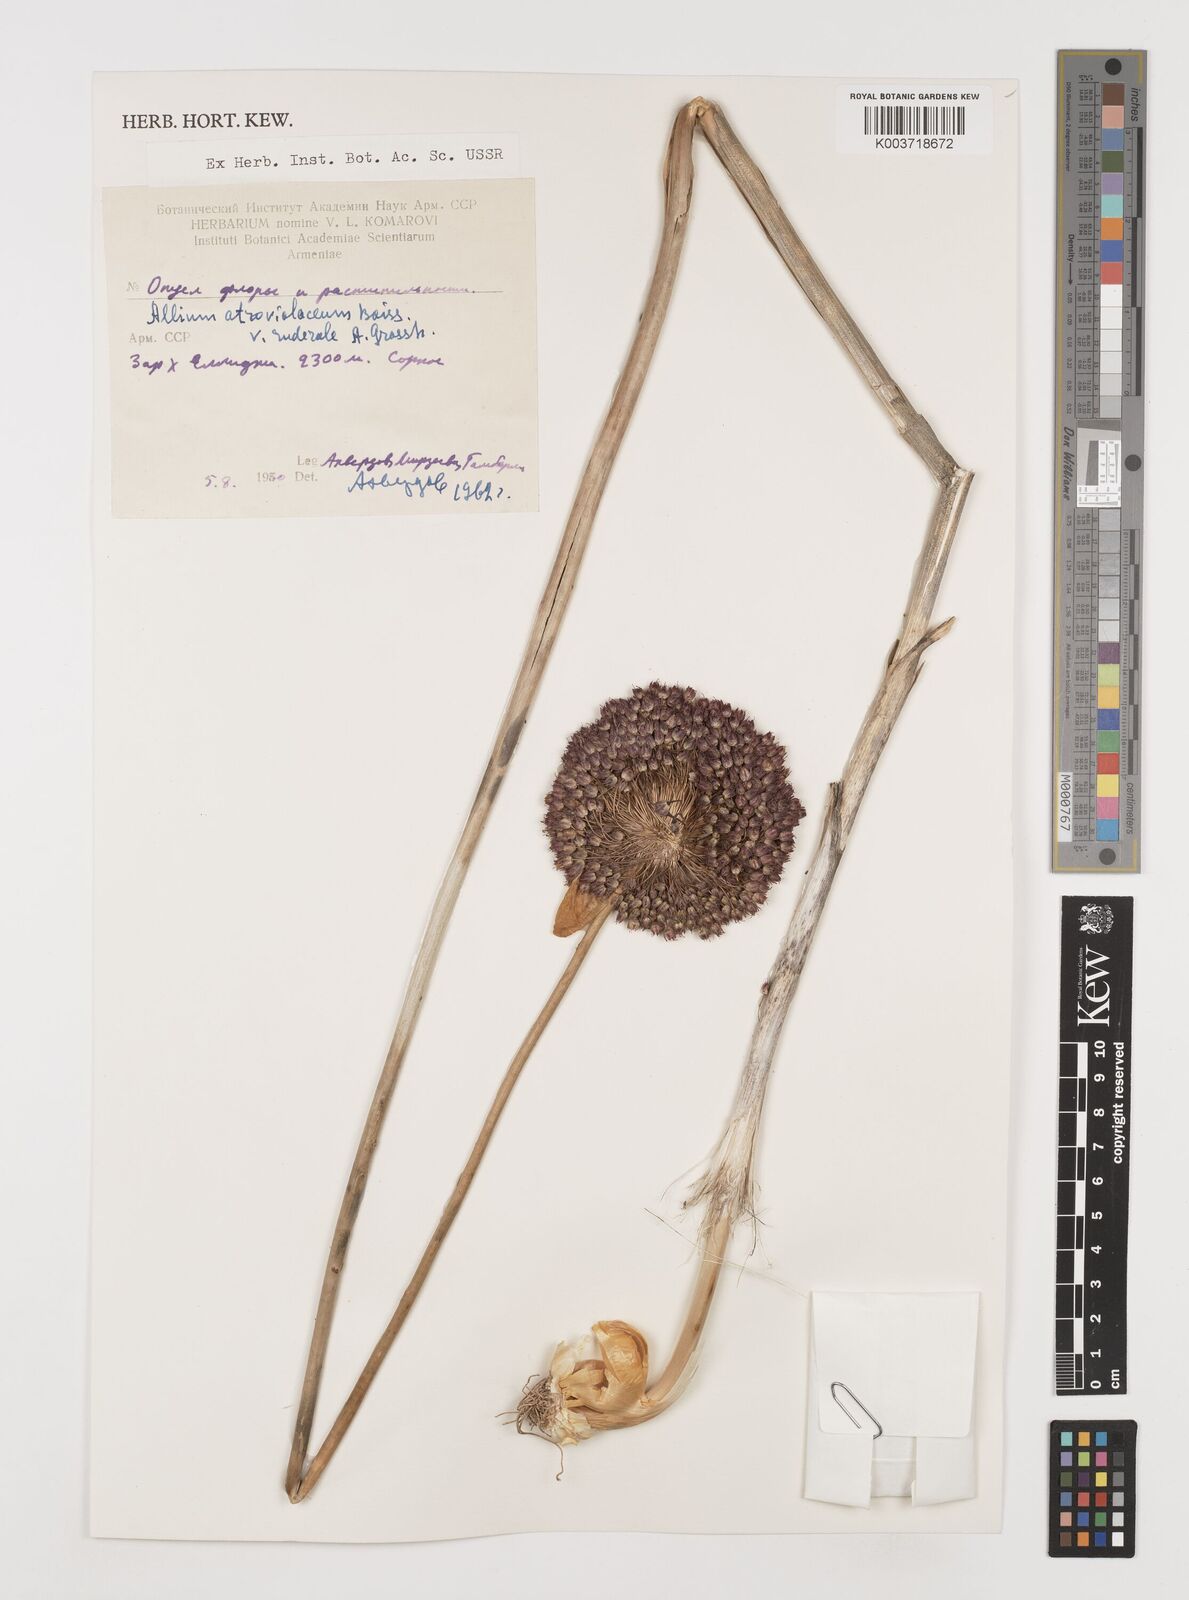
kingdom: Plantae
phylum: Tracheophyta
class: Liliopsida
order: Asparagales
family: Amaryllidaceae
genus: Allium
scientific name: Allium atroviolaceum
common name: Broadleaf wild leek
